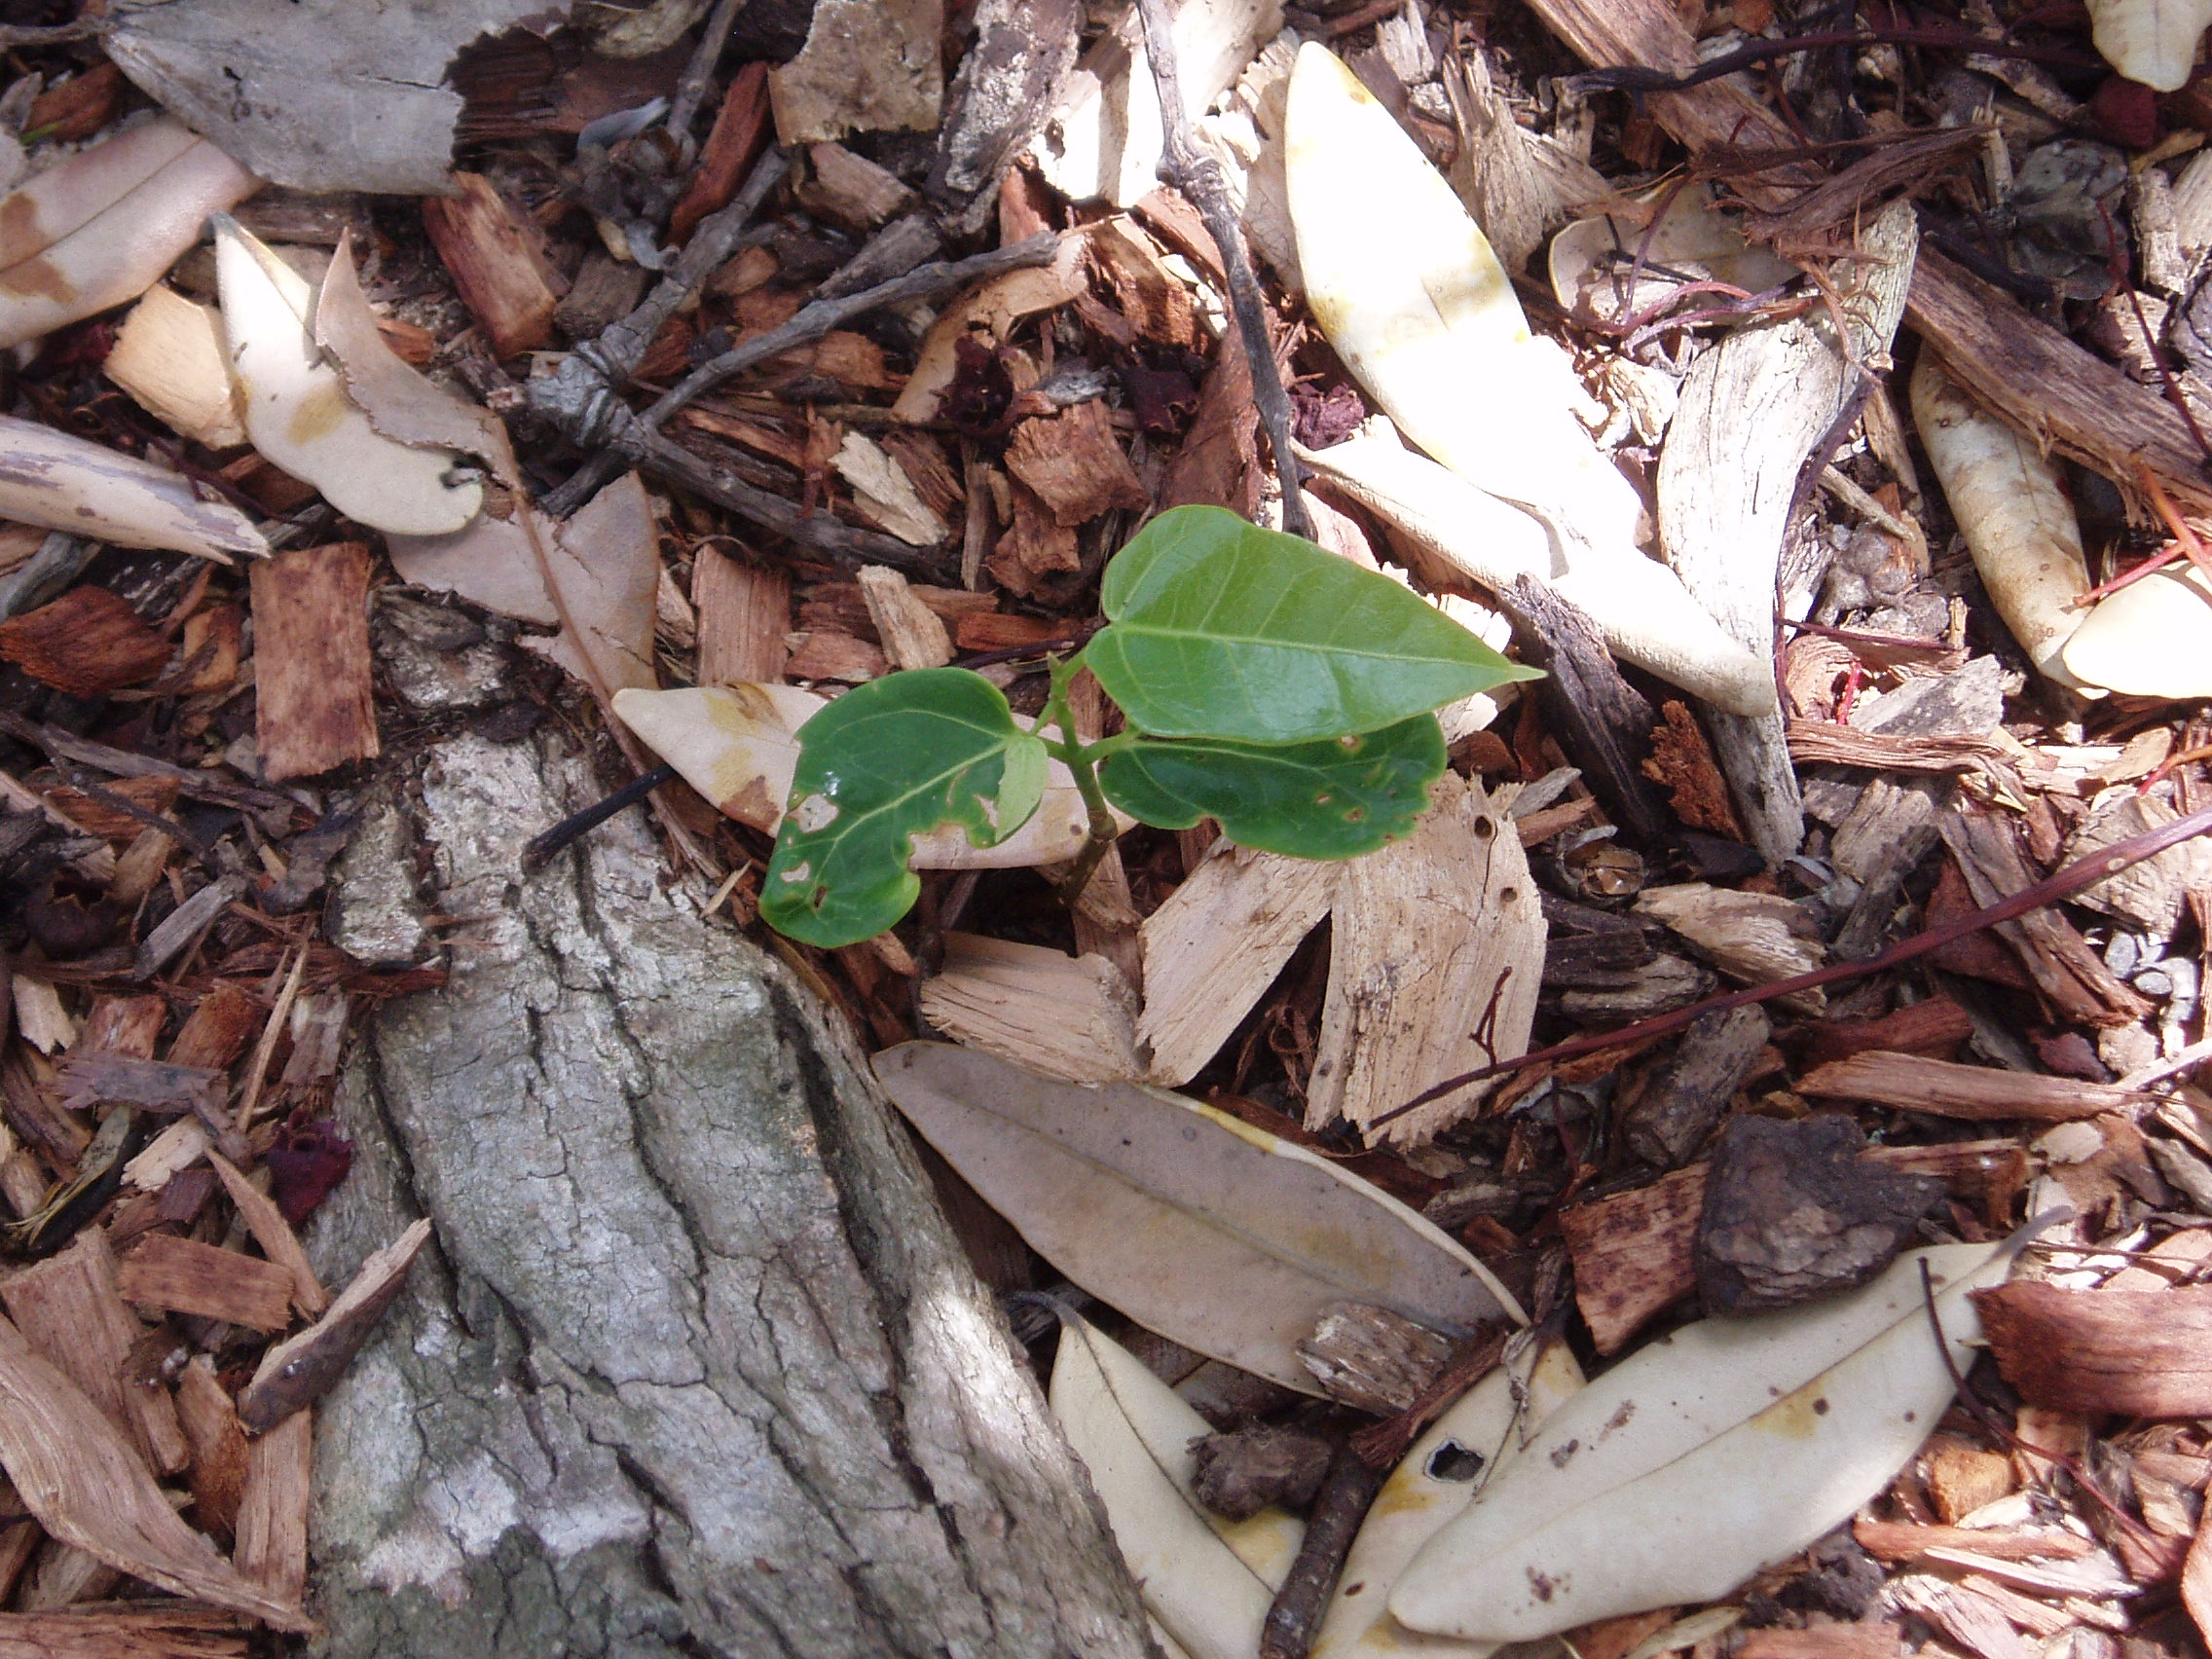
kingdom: Plantae
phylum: Tracheophyta
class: Magnoliopsida
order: Malvales
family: Malvaceae
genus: Brachychiton
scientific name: Brachychiton acerifolius
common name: Illawarra flame tree
